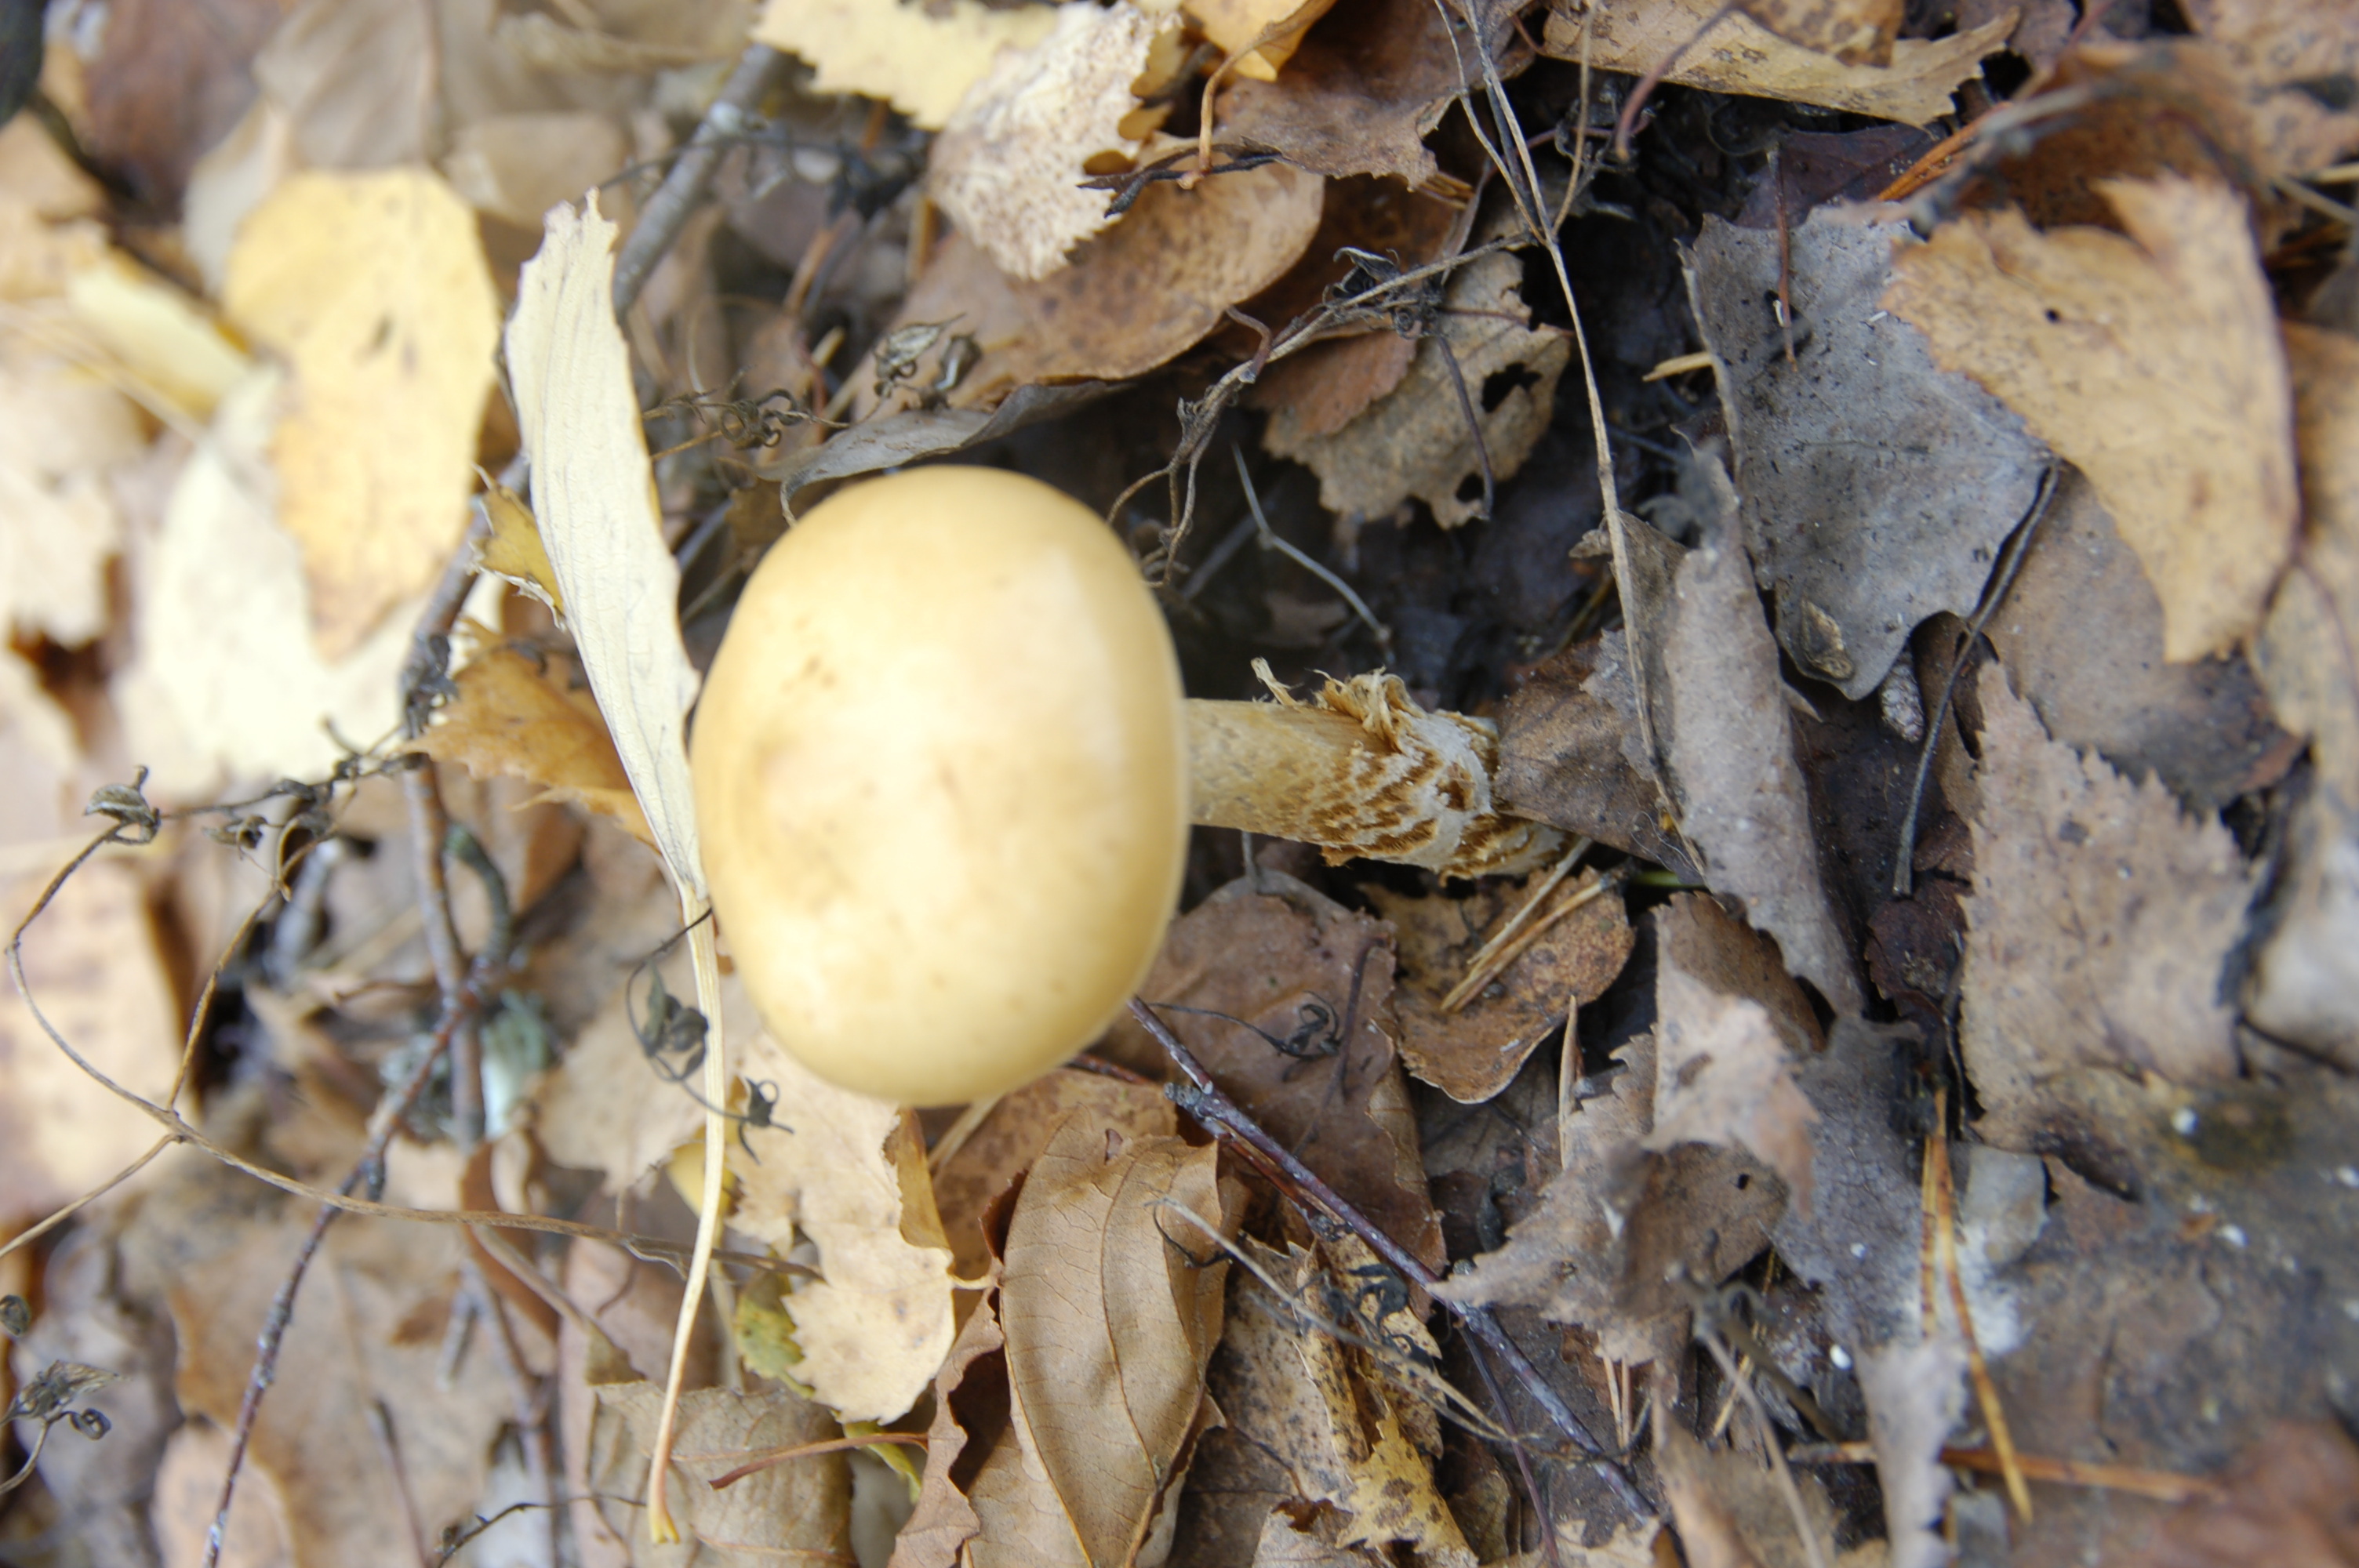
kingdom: Fungi
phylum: Basidiomycota
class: Agaricomycetes
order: Agaricales
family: Cortinariaceae
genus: Cortinarius
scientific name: Cortinarius trivialis
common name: Girdled webcap
